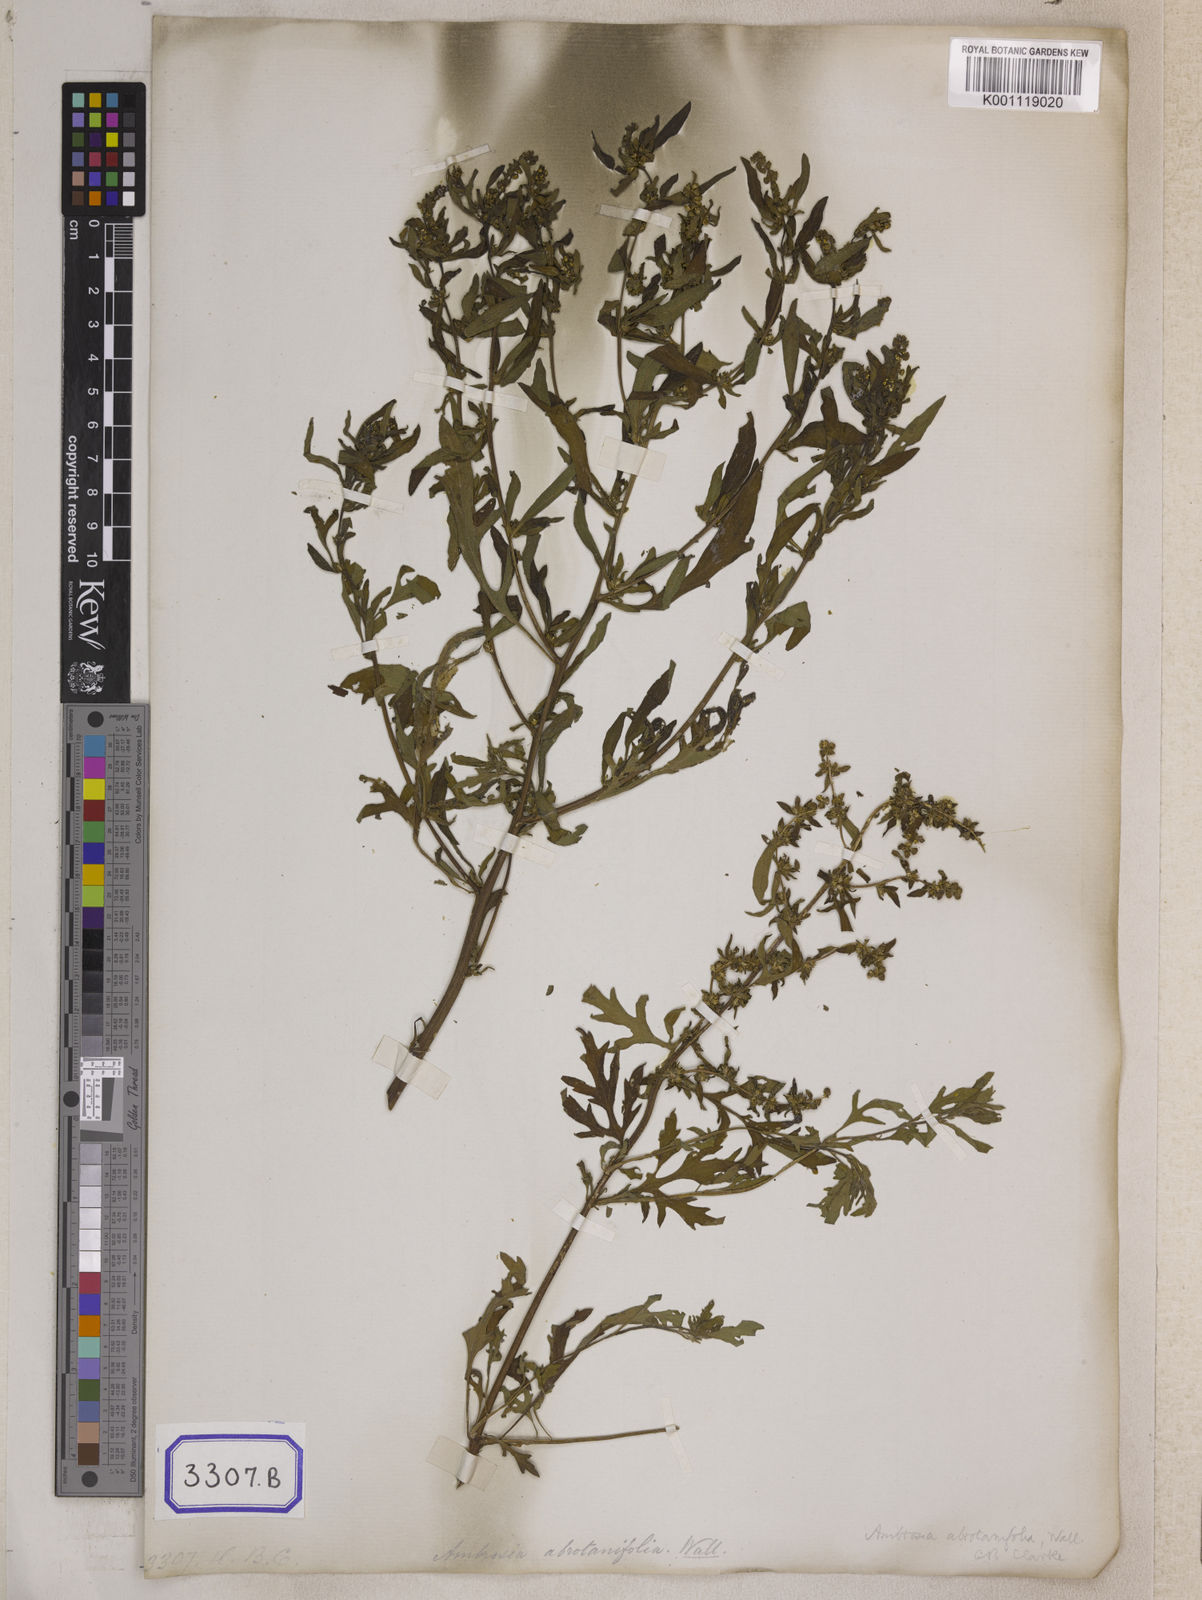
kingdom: Plantae
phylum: Tracheophyta
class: Magnoliopsida
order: Asterales
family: Asteraceae
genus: Artemisia
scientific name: Artemisia
